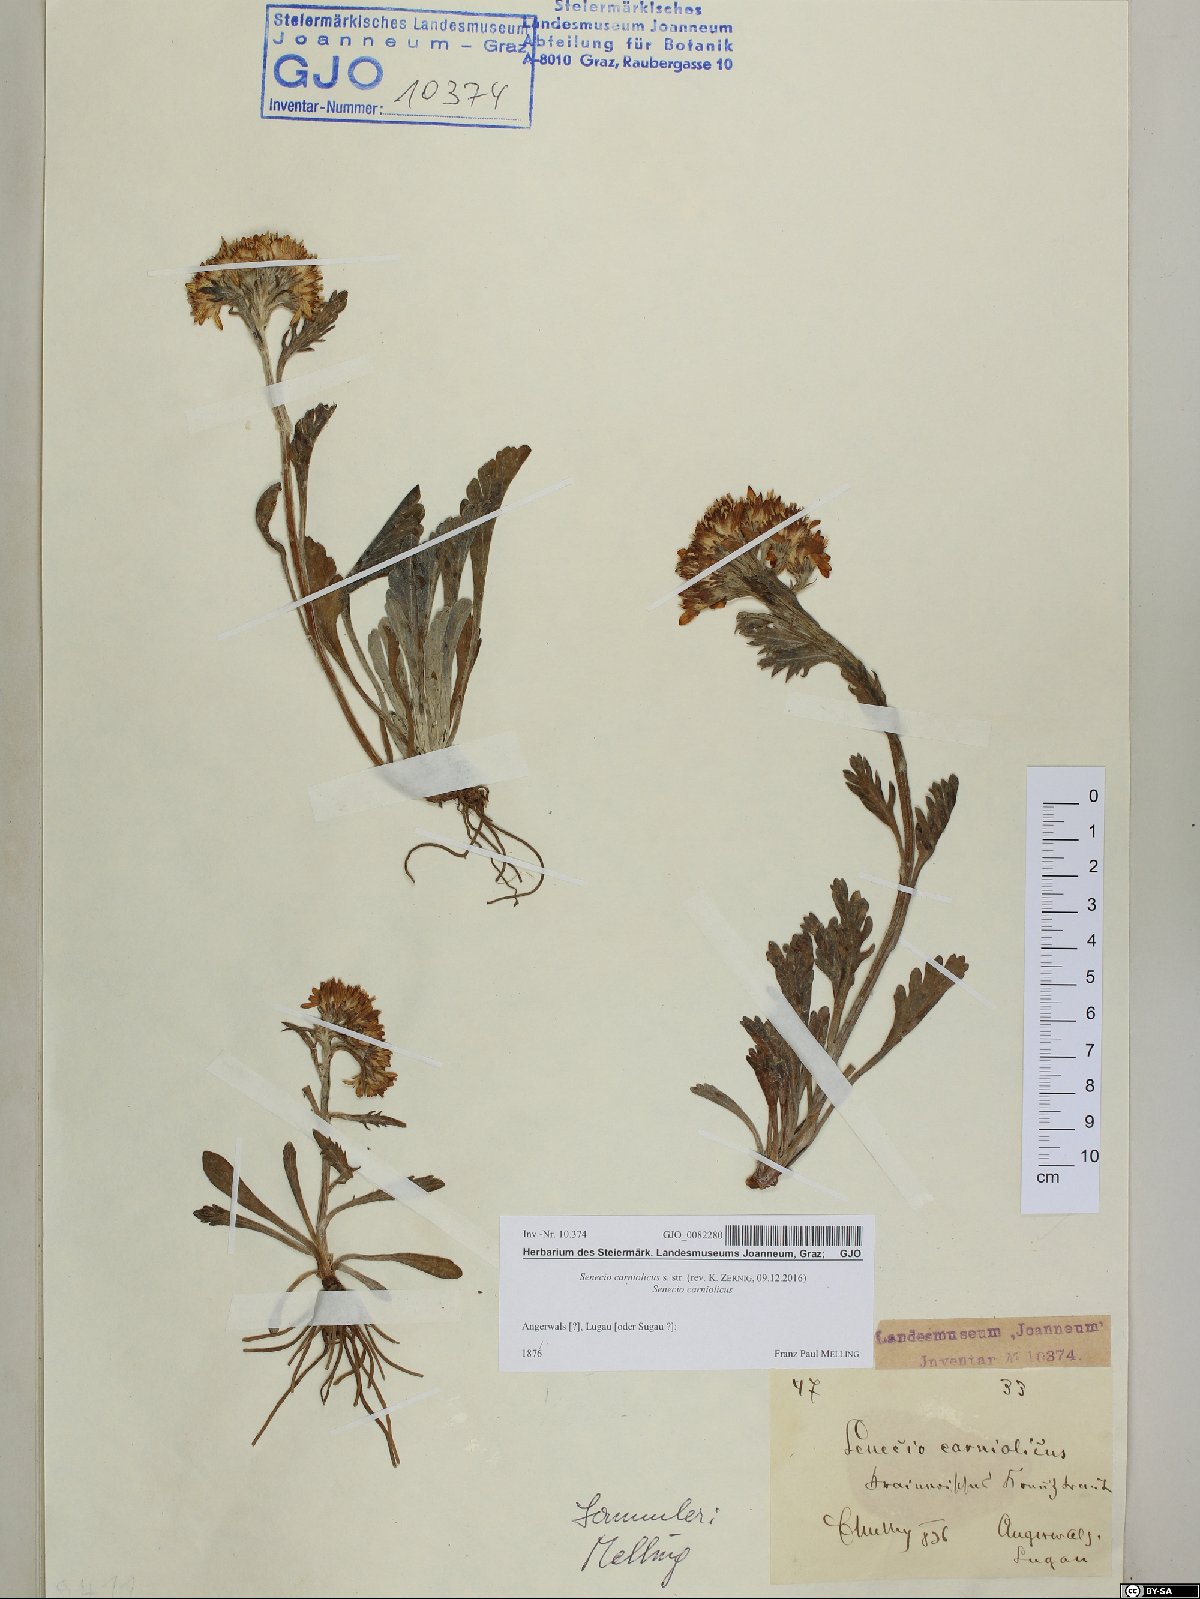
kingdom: Plantae
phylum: Tracheophyta
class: Magnoliopsida
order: Asterales
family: Asteraceae
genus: Jacobaea
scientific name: Jacobaea carniolica
